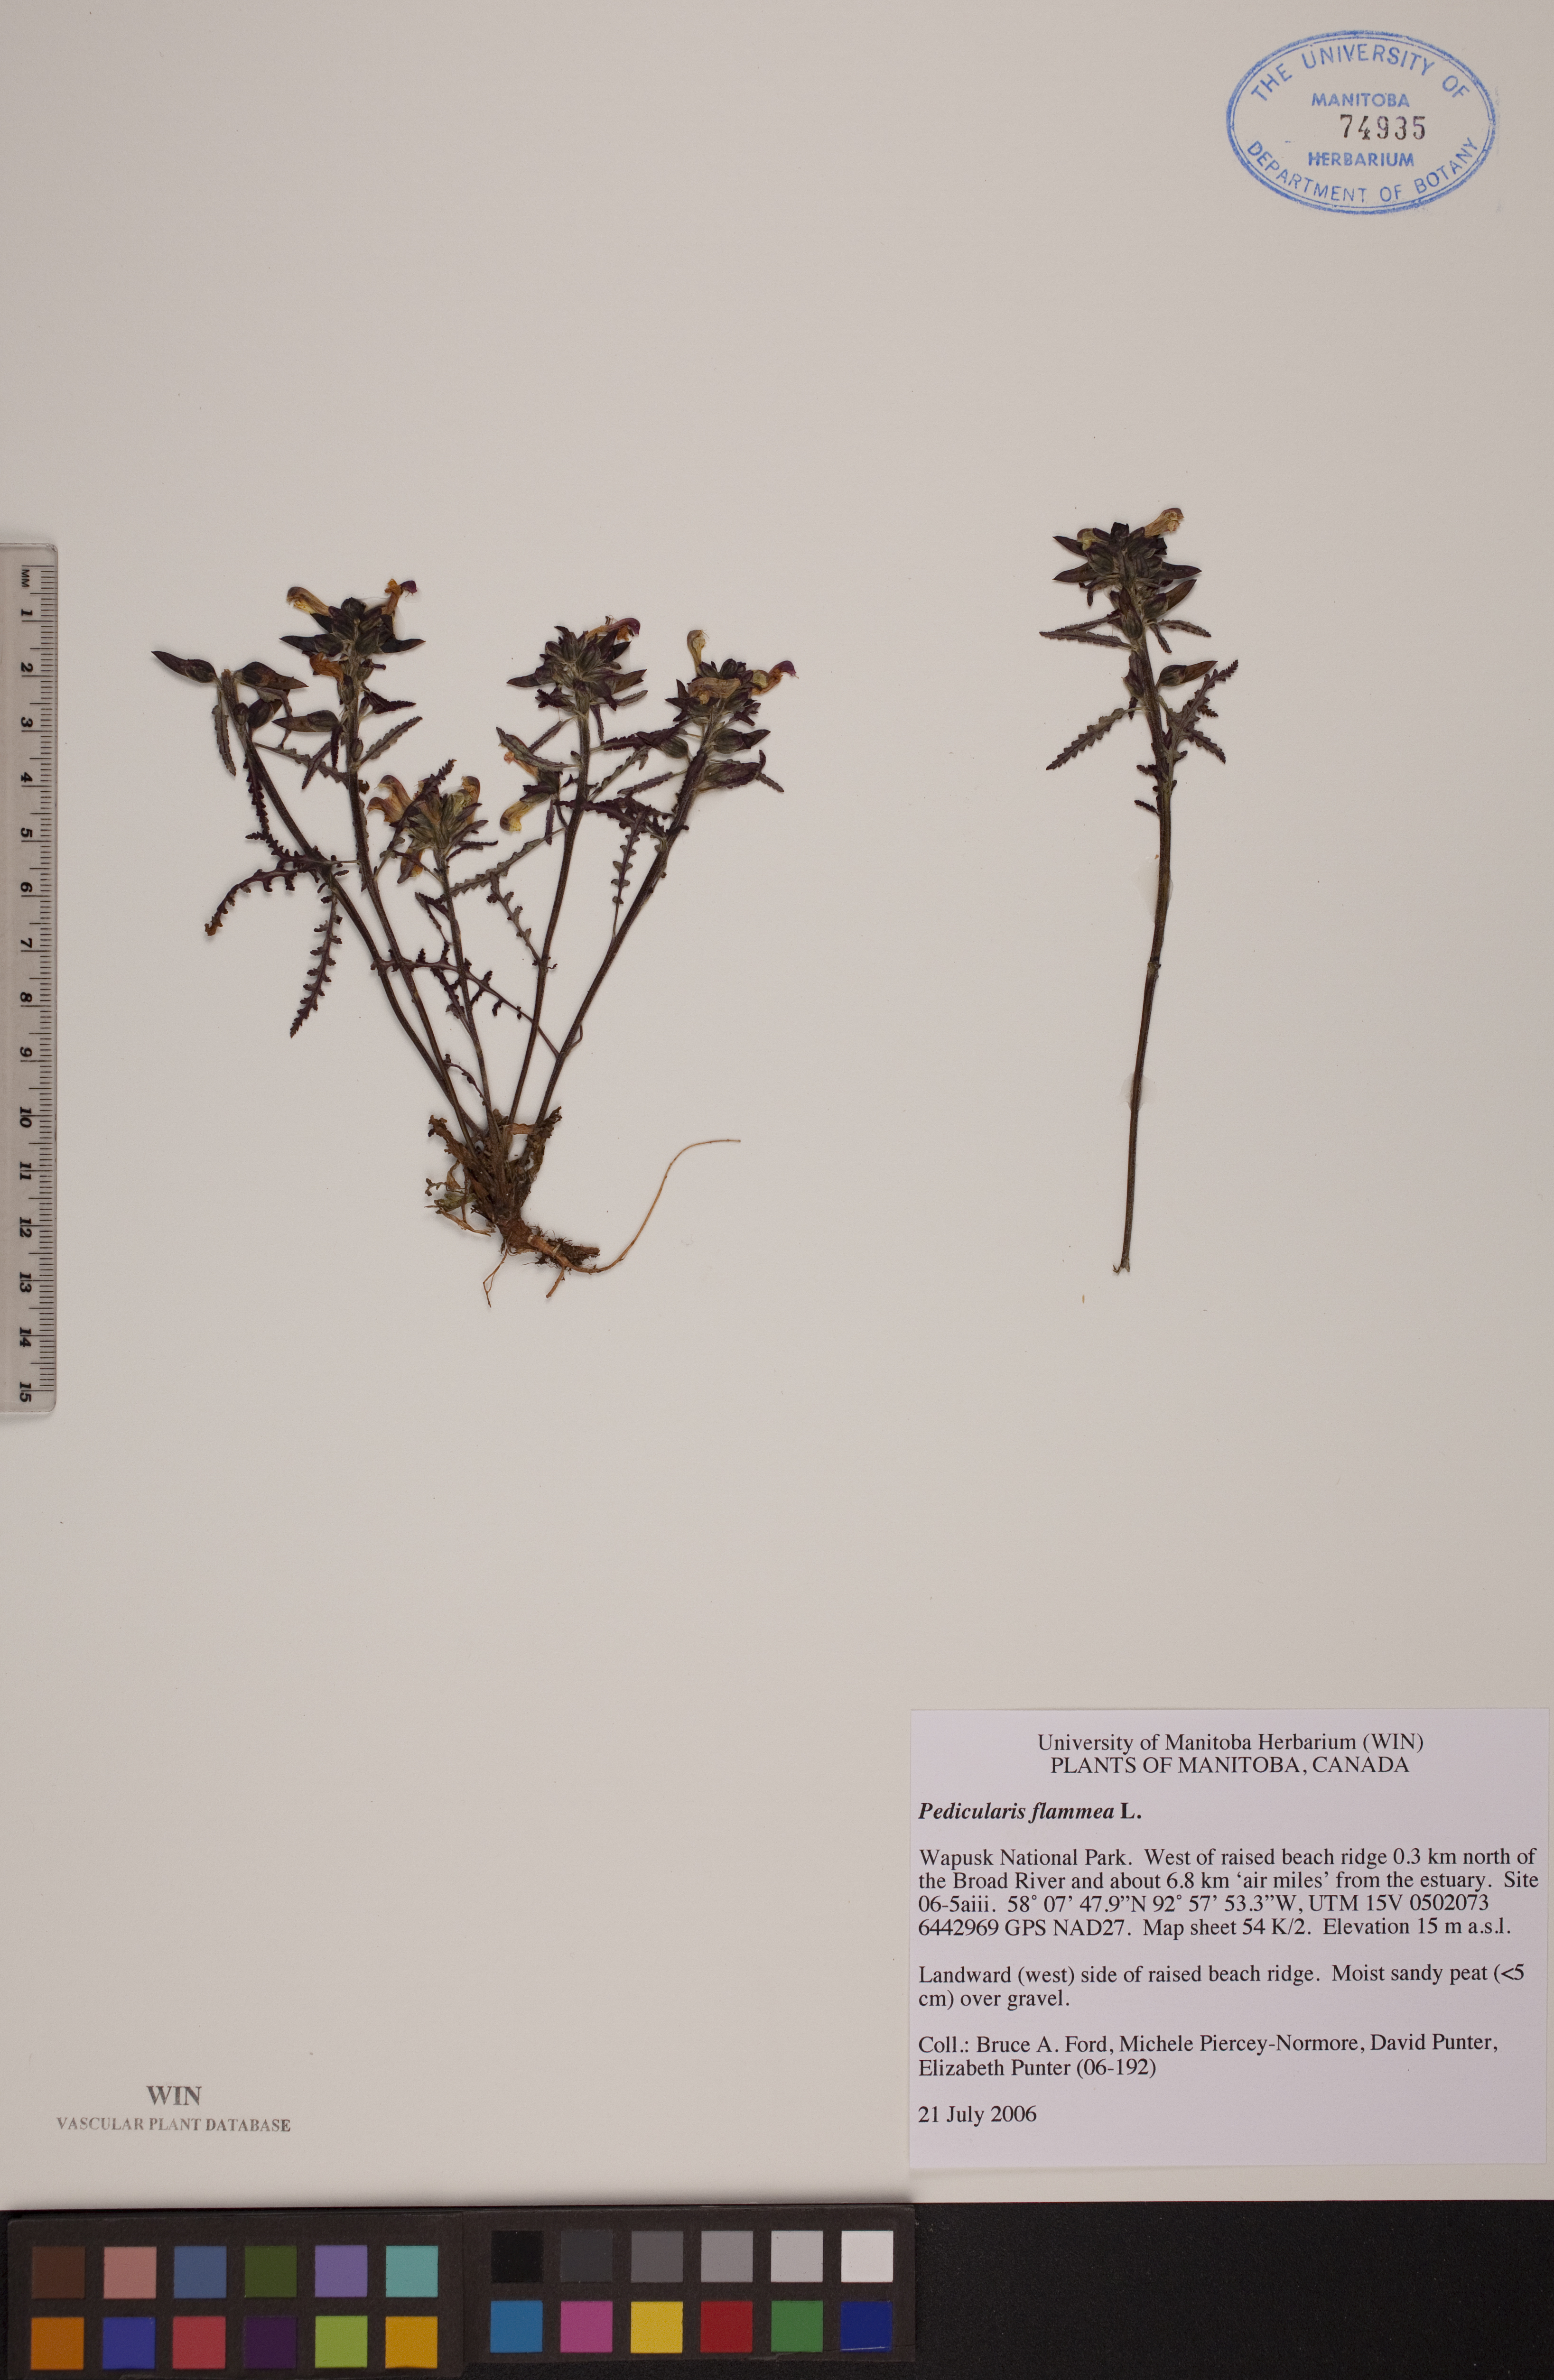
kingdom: Plantae
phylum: Tracheophyta
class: Magnoliopsida
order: Lamiales
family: Orobanchaceae
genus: Pedicularis
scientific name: Pedicularis flammea
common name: Flame-coloured lousewort
